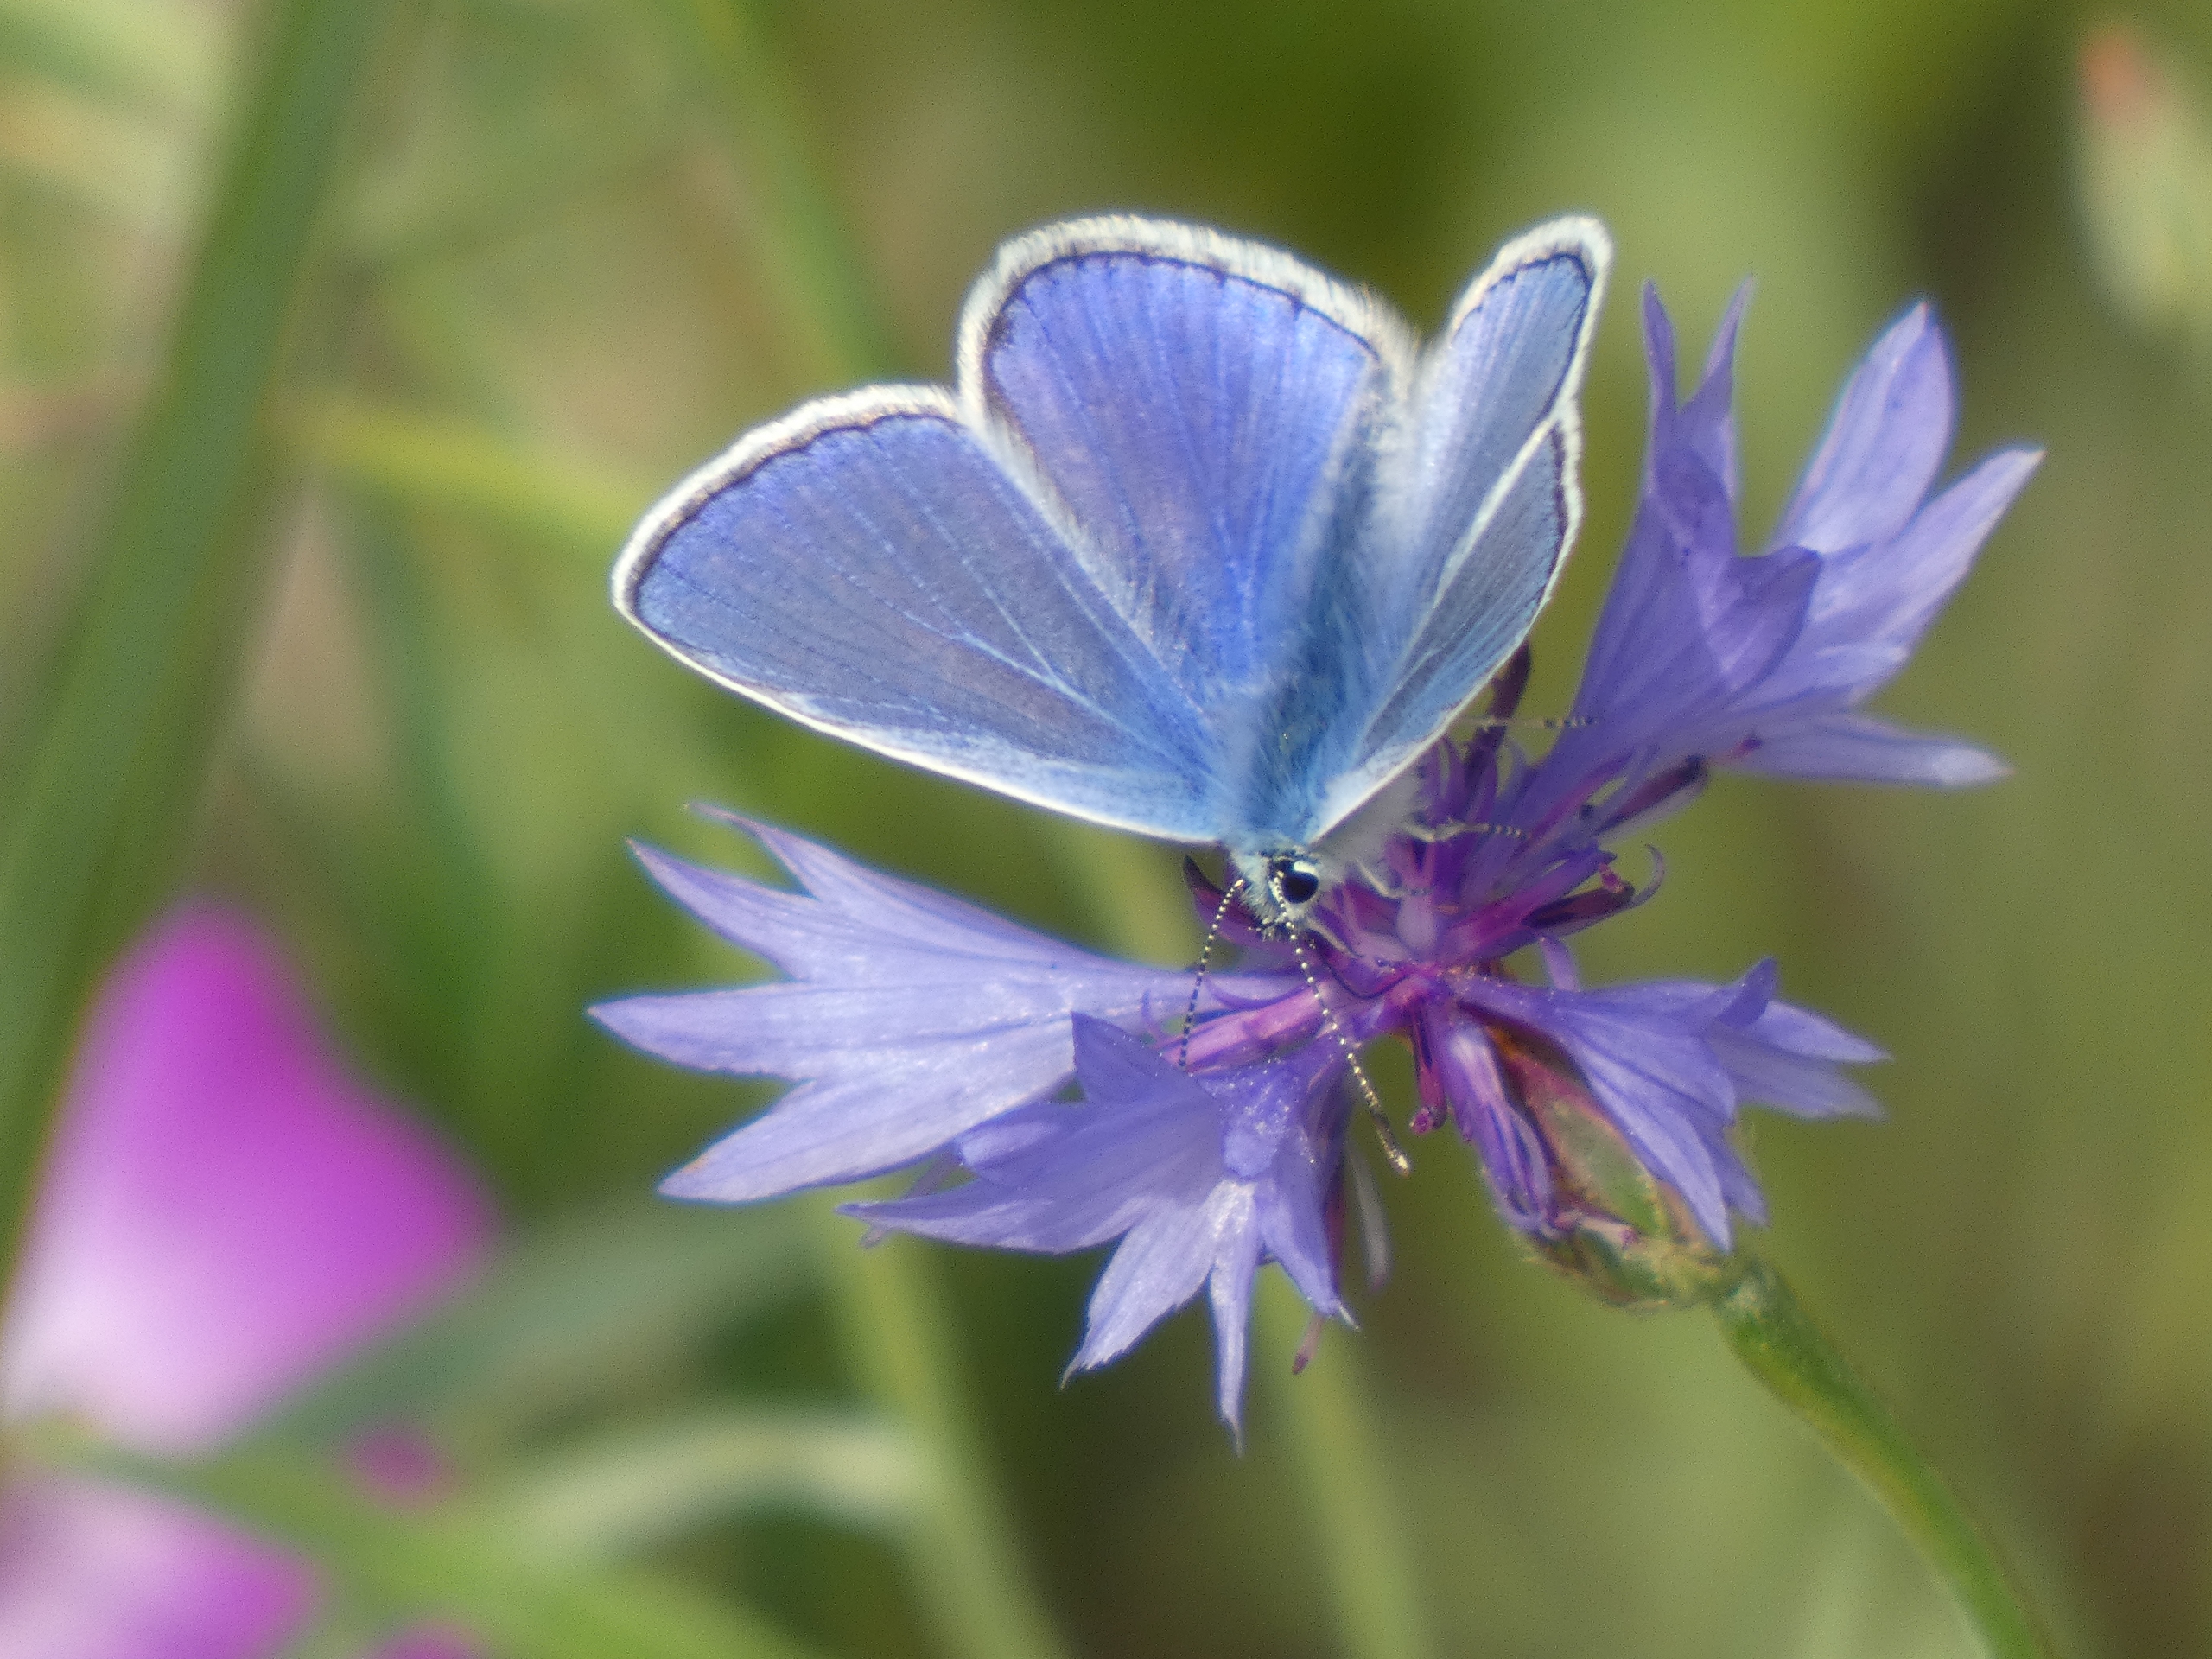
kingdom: Animalia
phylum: Arthropoda
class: Insecta
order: Lepidoptera
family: Lycaenidae
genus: Polyommatus
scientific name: Polyommatus icarus
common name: Almindelig blåfugl
